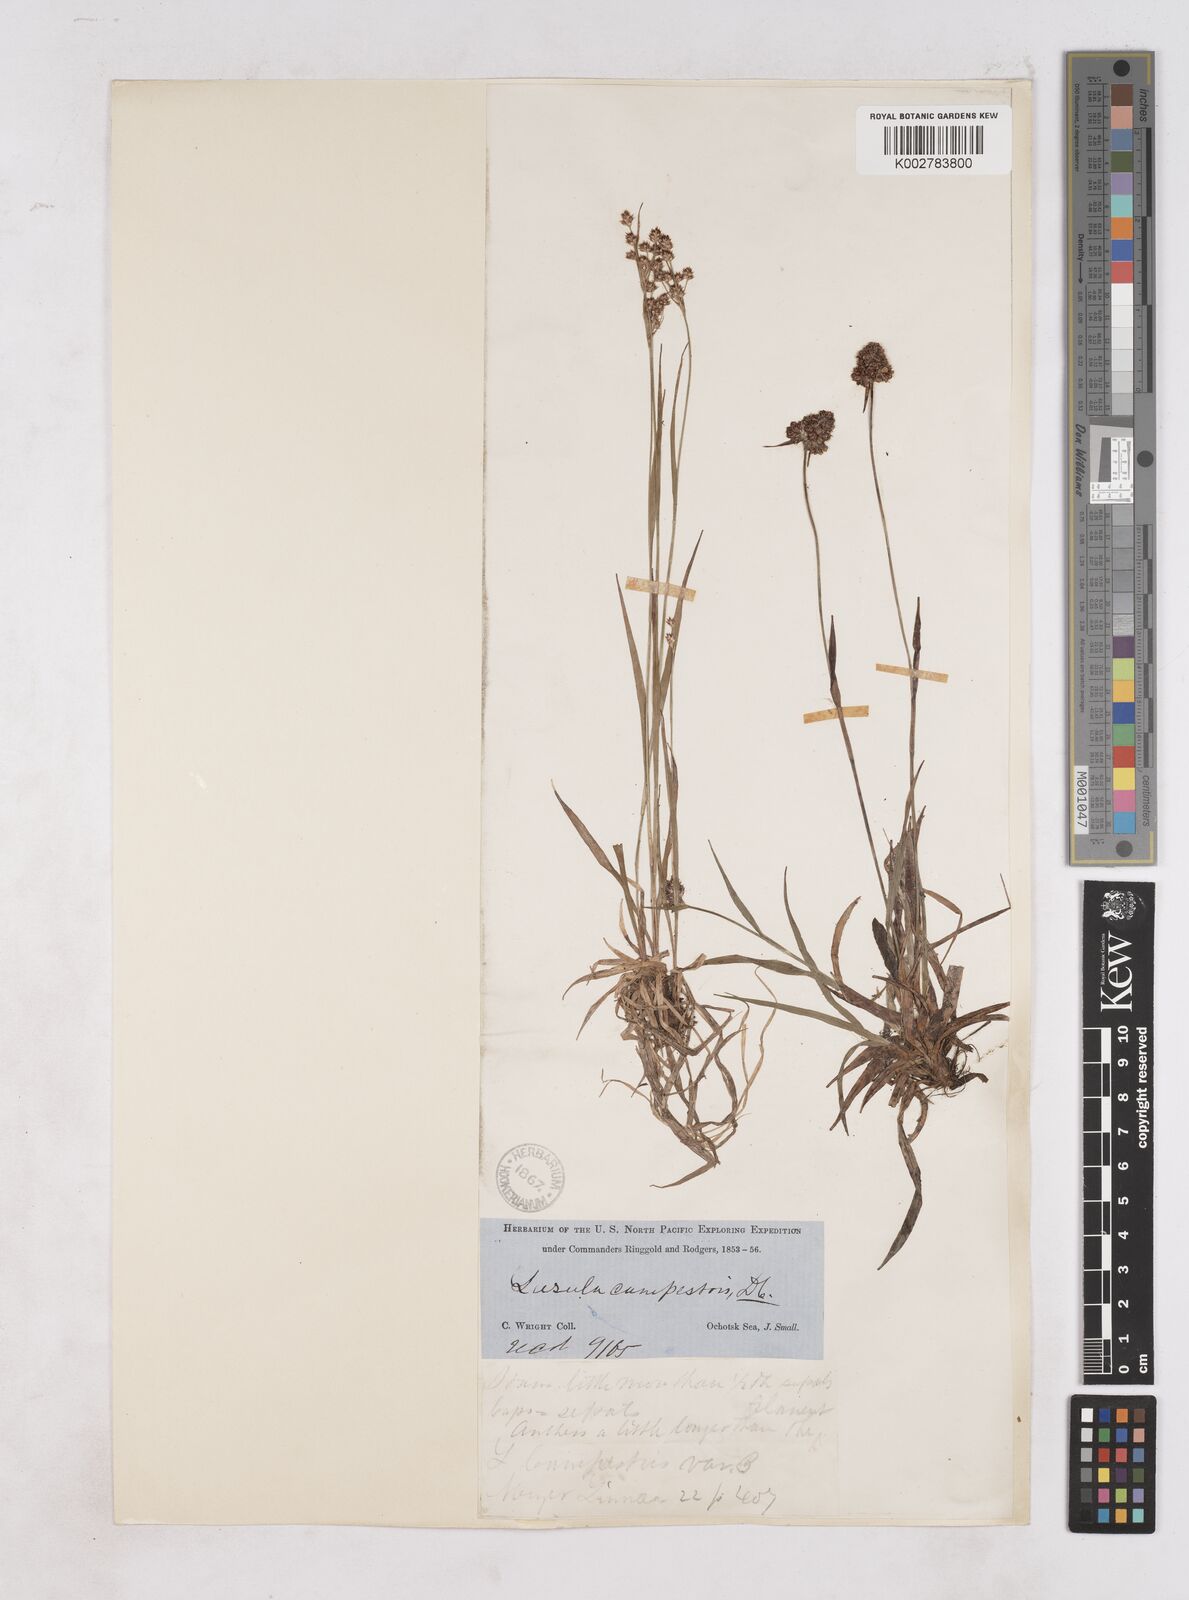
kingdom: Plantae
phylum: Tracheophyta
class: Liliopsida
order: Poales
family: Juncaceae
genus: Luzula
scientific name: Luzula campestris
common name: Field wood-rush
